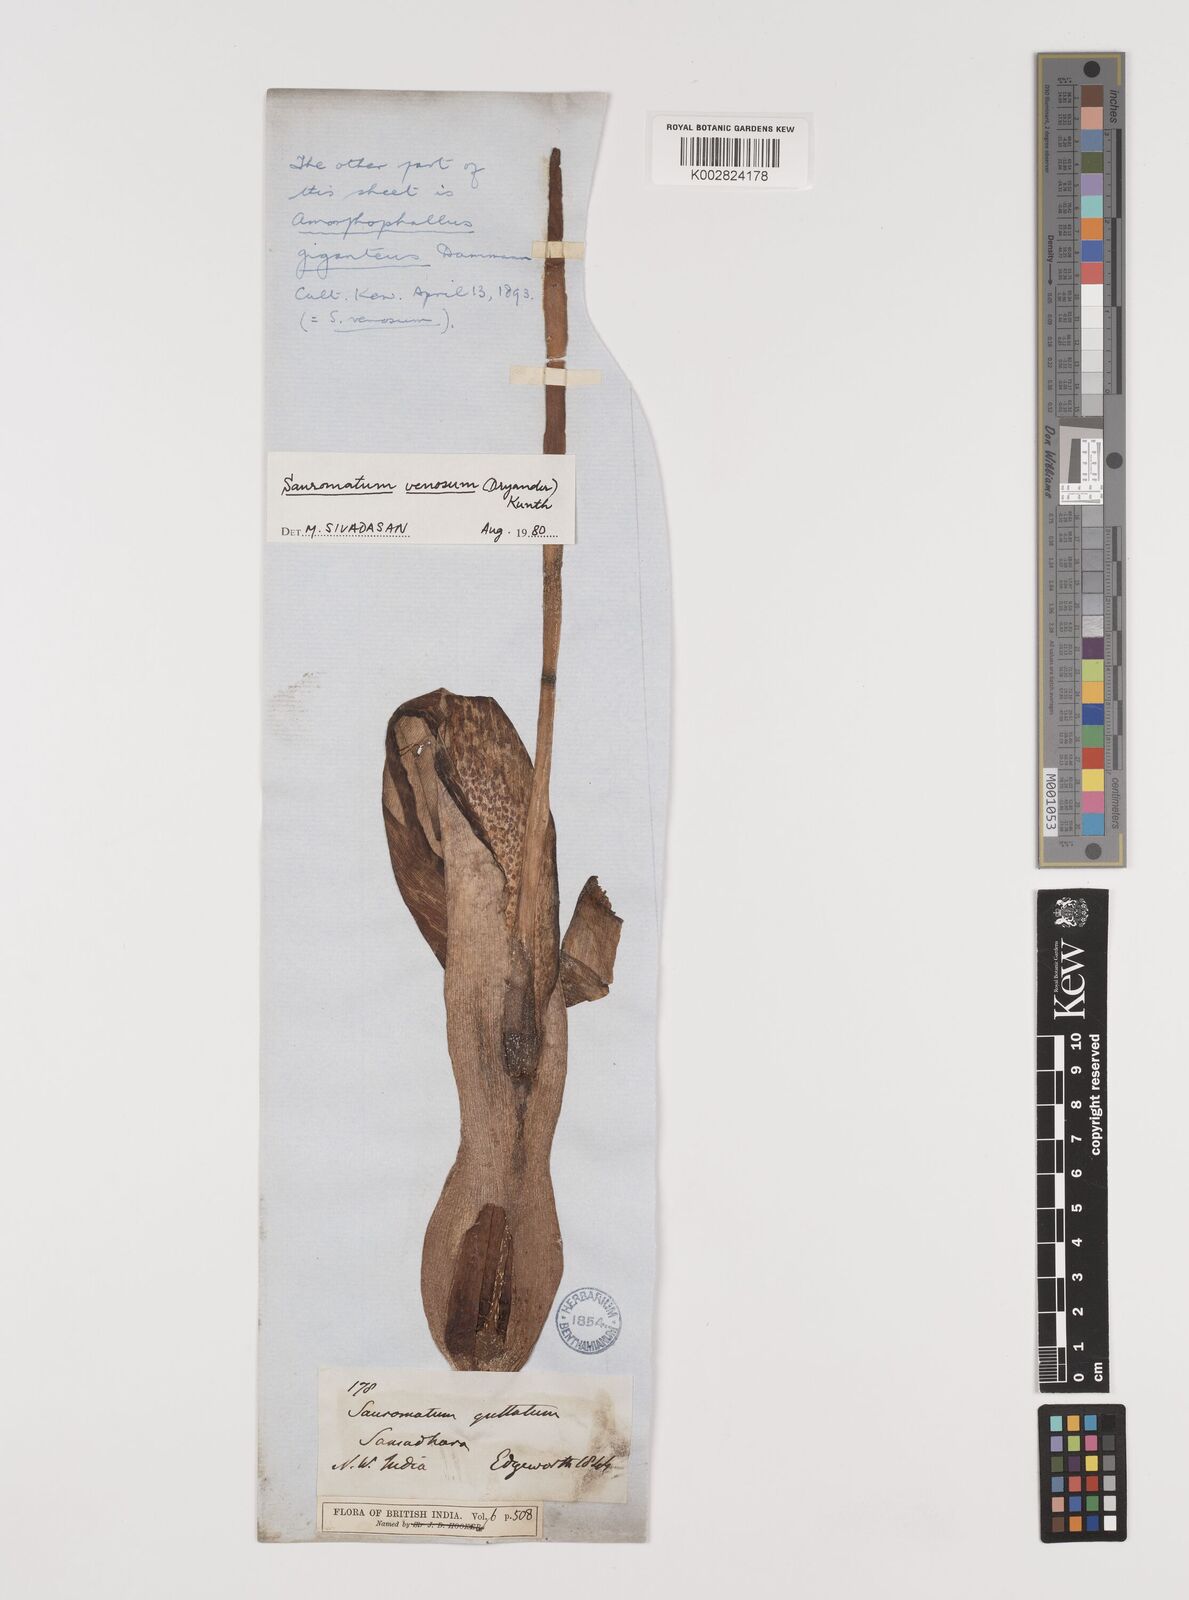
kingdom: Plantae
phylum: Tracheophyta
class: Liliopsida
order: Alismatales
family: Araceae
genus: Sauromatum
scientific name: Sauromatum venosum
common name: Voodoo lily
